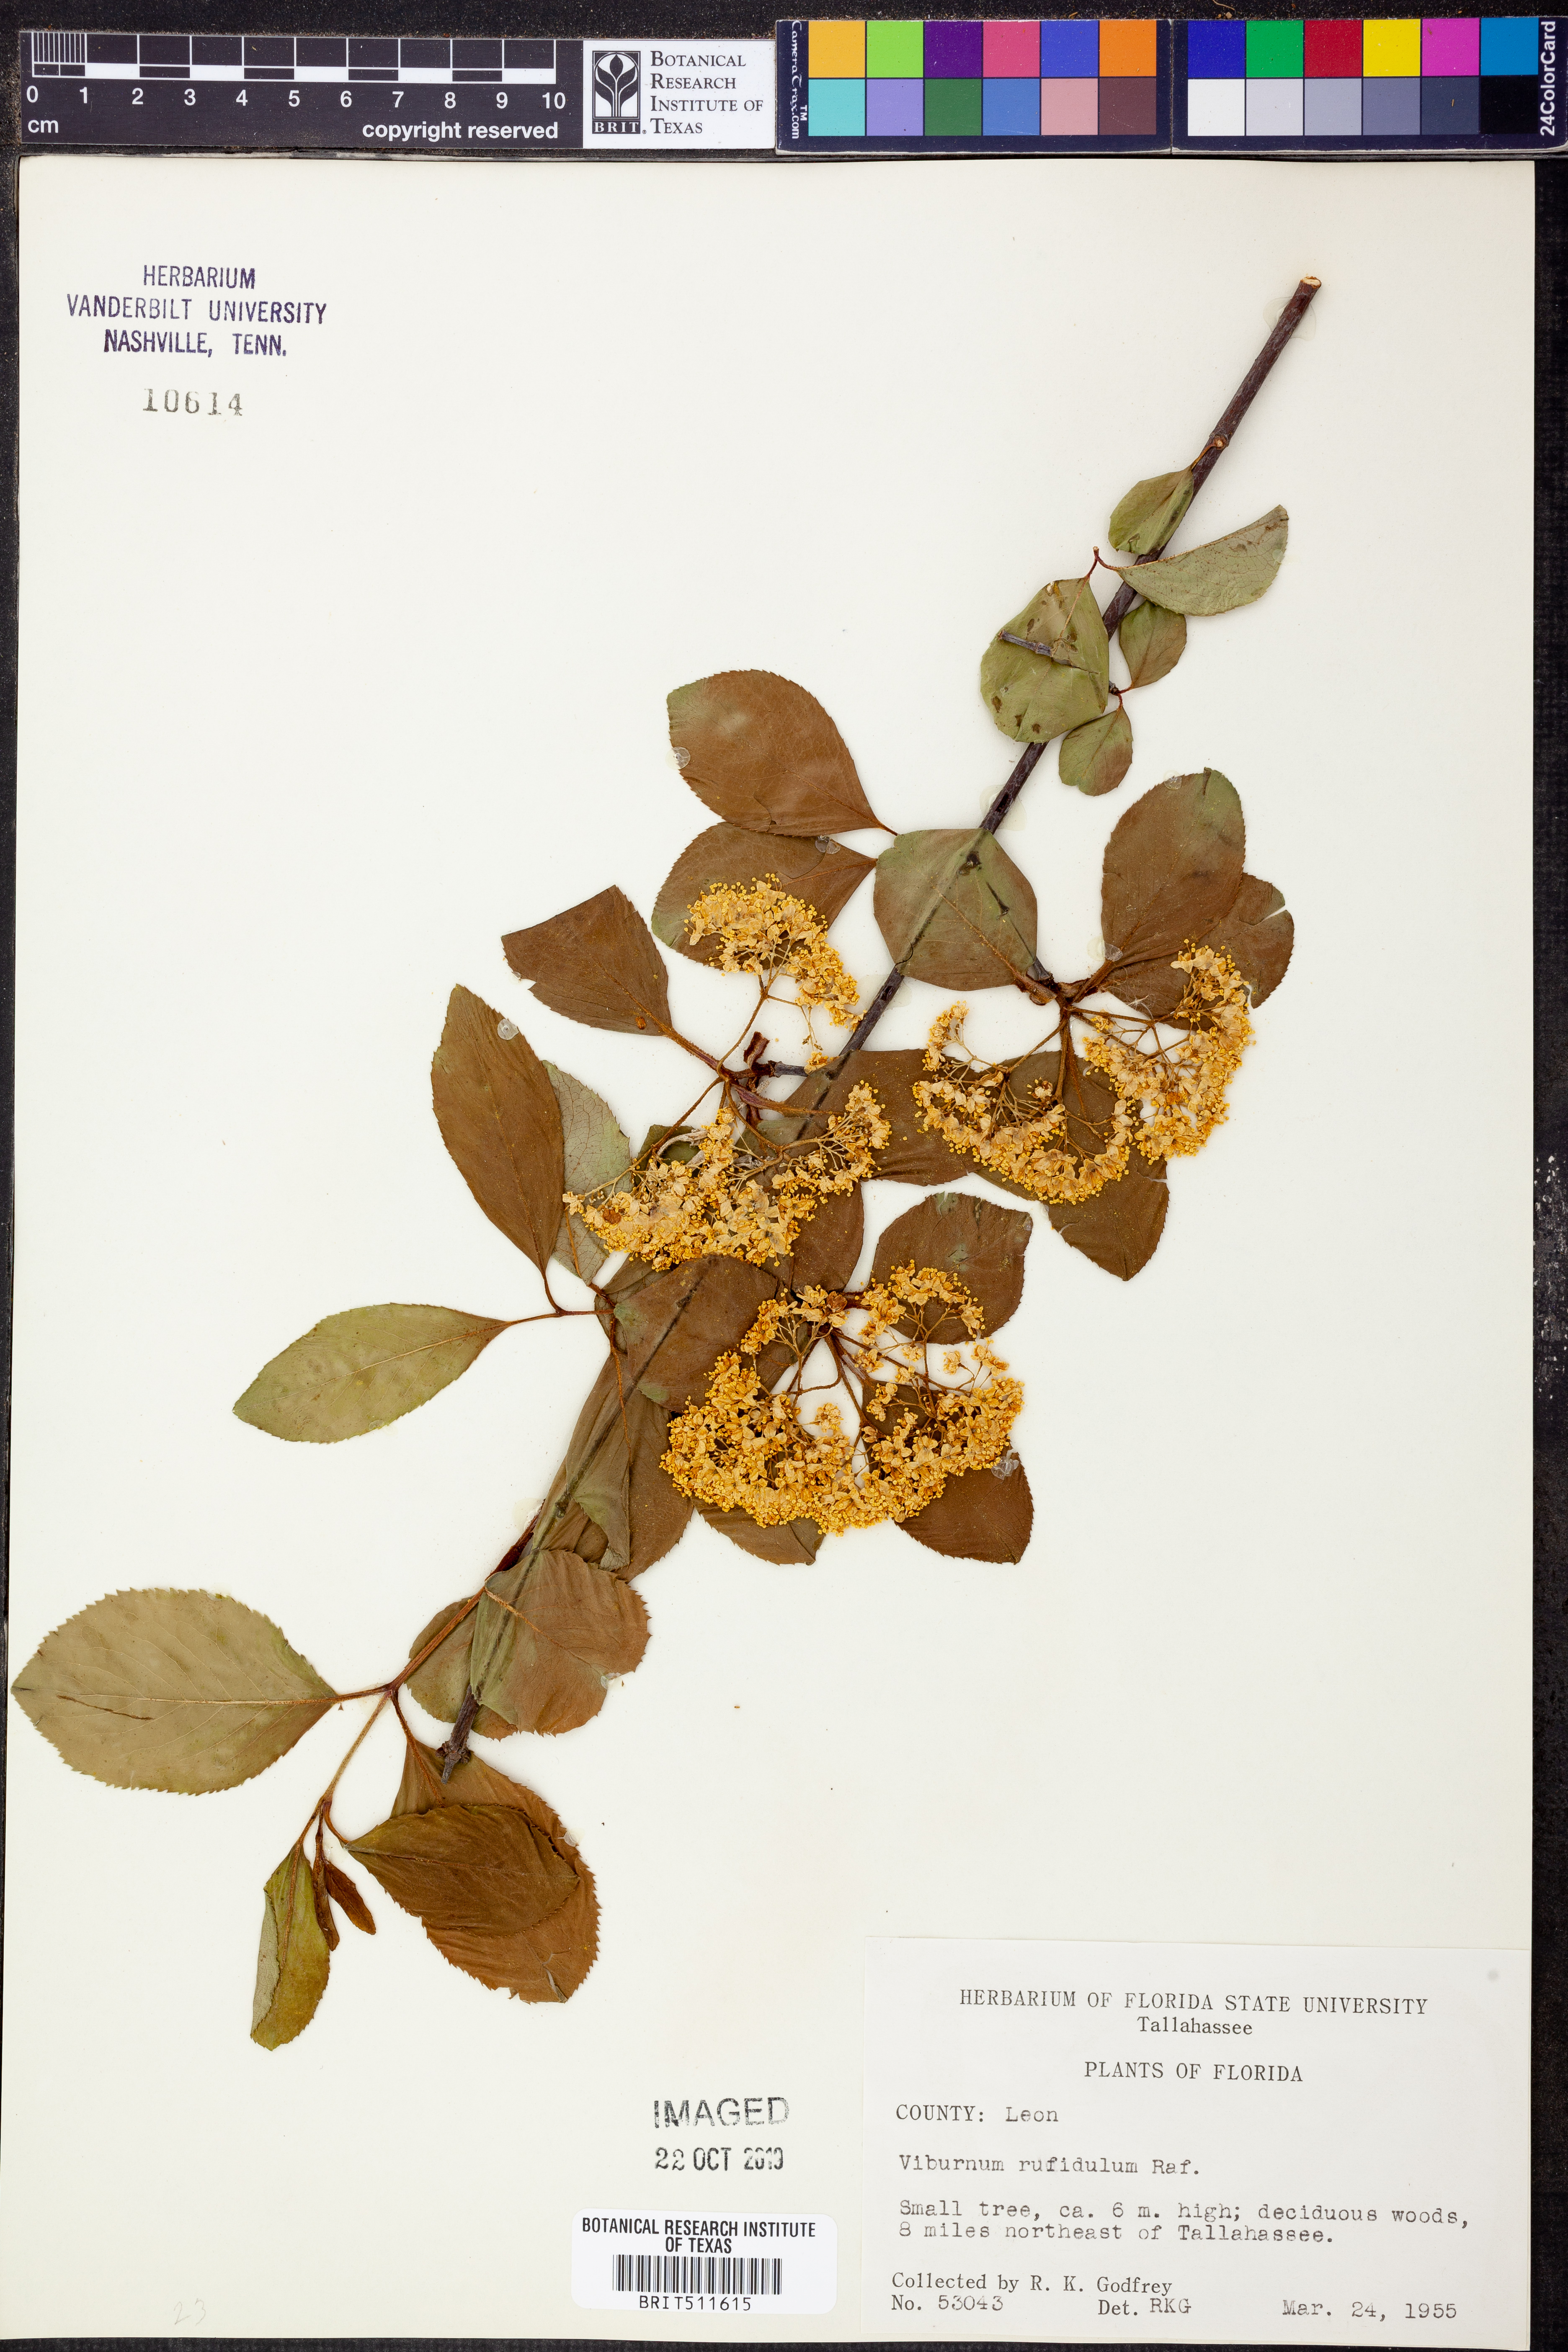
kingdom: Plantae
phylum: Tracheophyta
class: Magnoliopsida
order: Dipsacales
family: Viburnaceae
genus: Viburnum
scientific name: Viburnum rufidulum
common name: Blue haw
